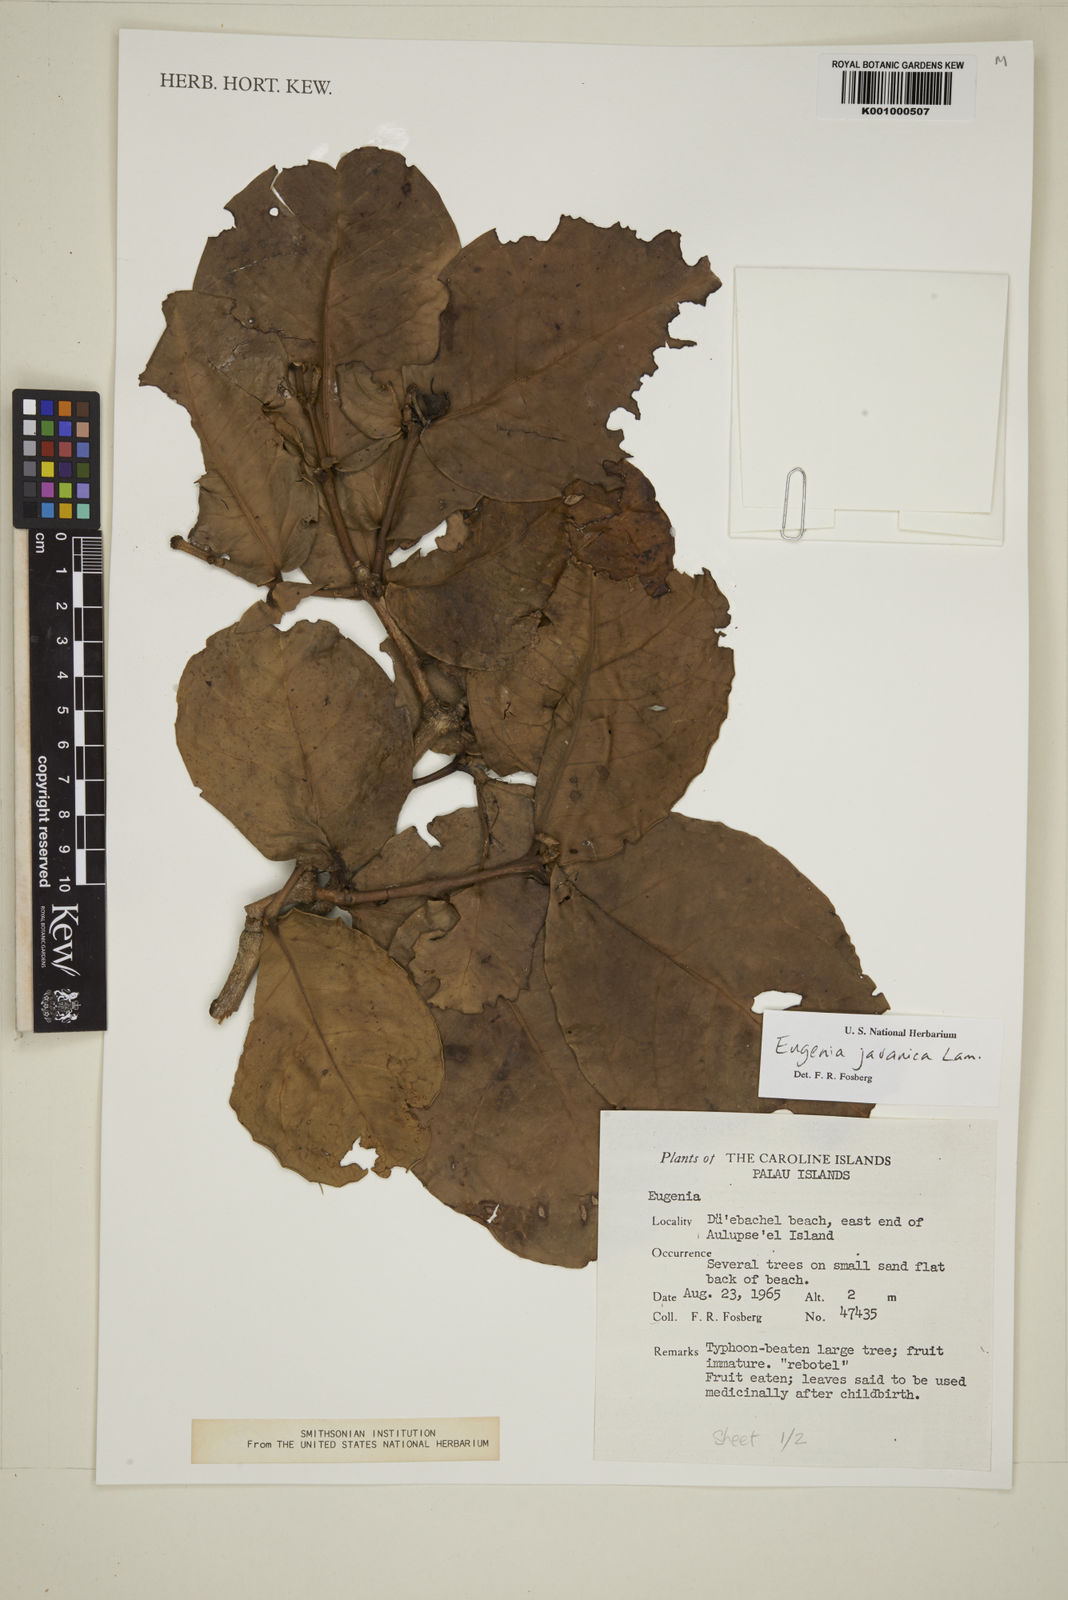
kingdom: Plantae
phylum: Tracheophyta
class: Magnoliopsida
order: Myrtales
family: Myrtaceae
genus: Syzygium
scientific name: Syzygium samarangense
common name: Semarang rose-apple
